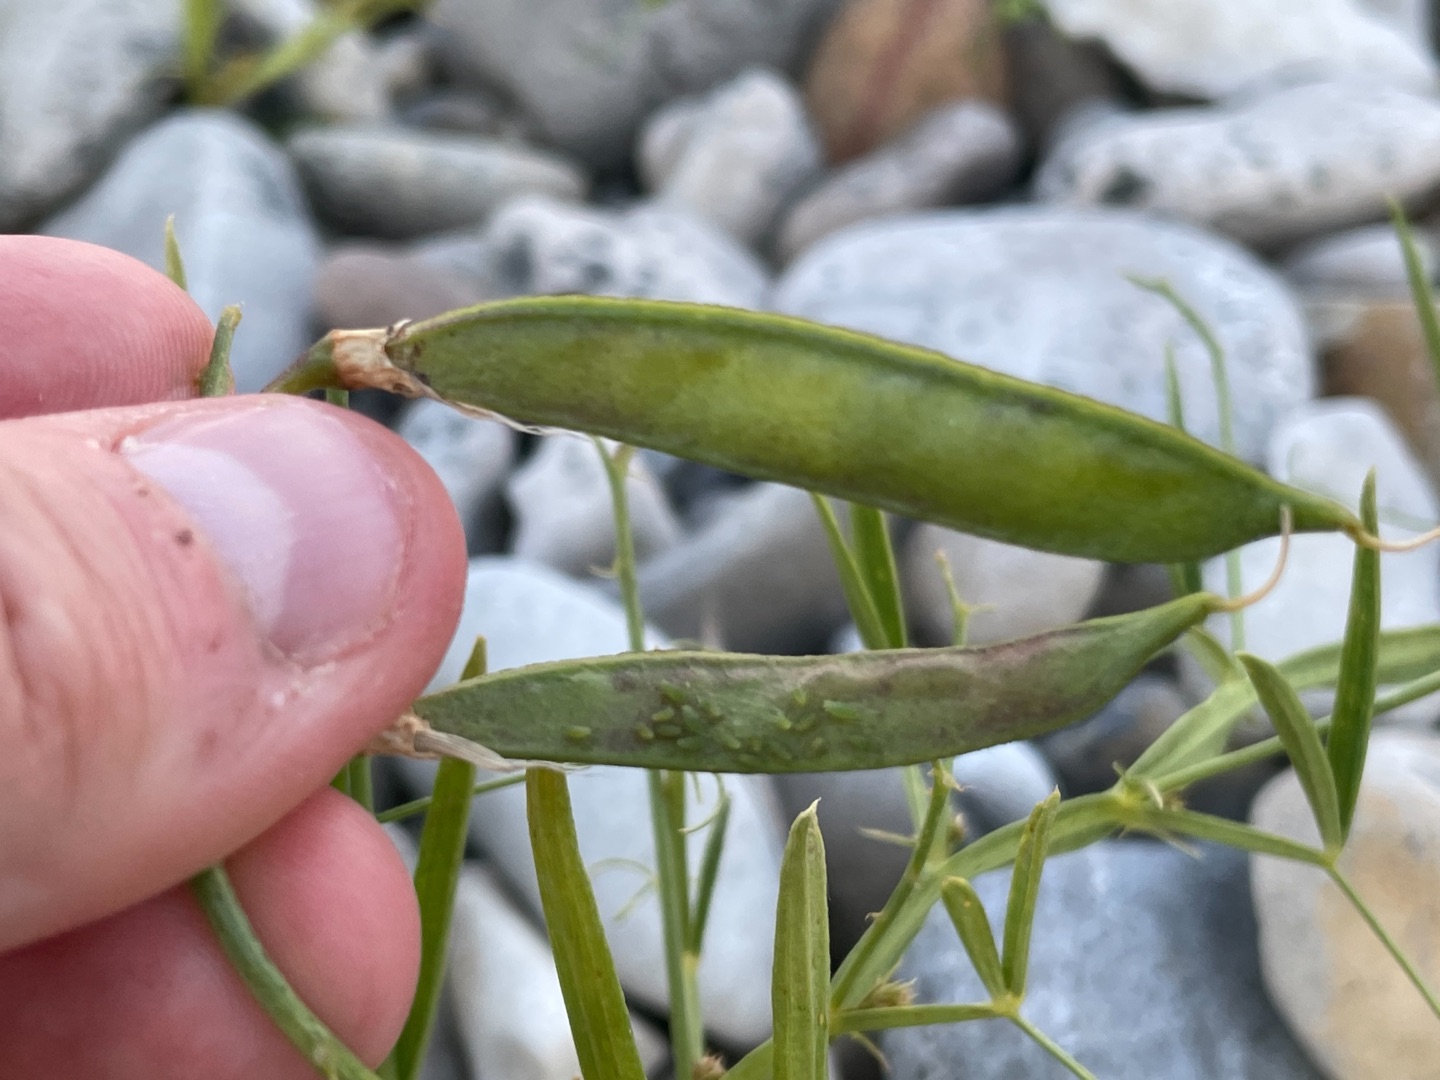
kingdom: Plantae
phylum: Tracheophyta
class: Magnoliopsida
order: Fabales
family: Fabaceae
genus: Lathyrus
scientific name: Lathyrus sylvestris
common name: Skov-fladbælg
